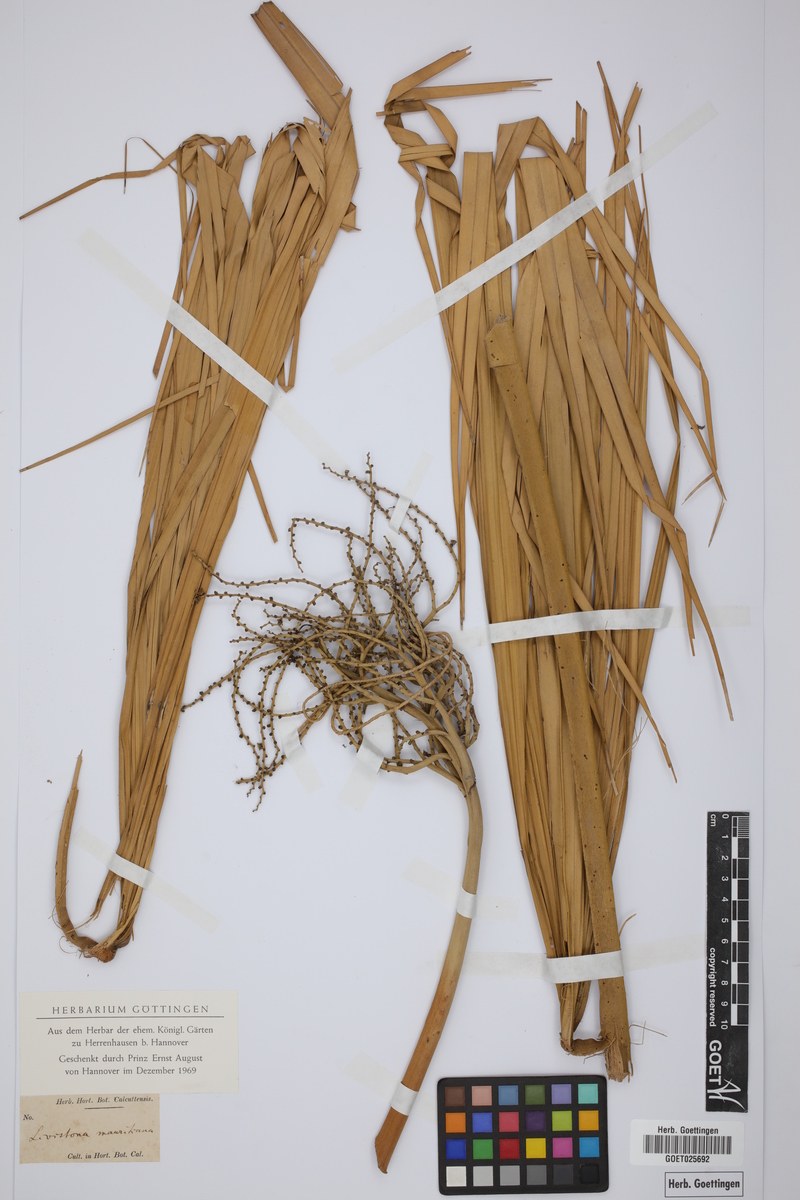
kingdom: Plantae
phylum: Tracheophyta
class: Liliopsida
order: Arecales
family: Arecaceae
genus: Livistona
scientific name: Livistona chinensis
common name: Fountain palm
